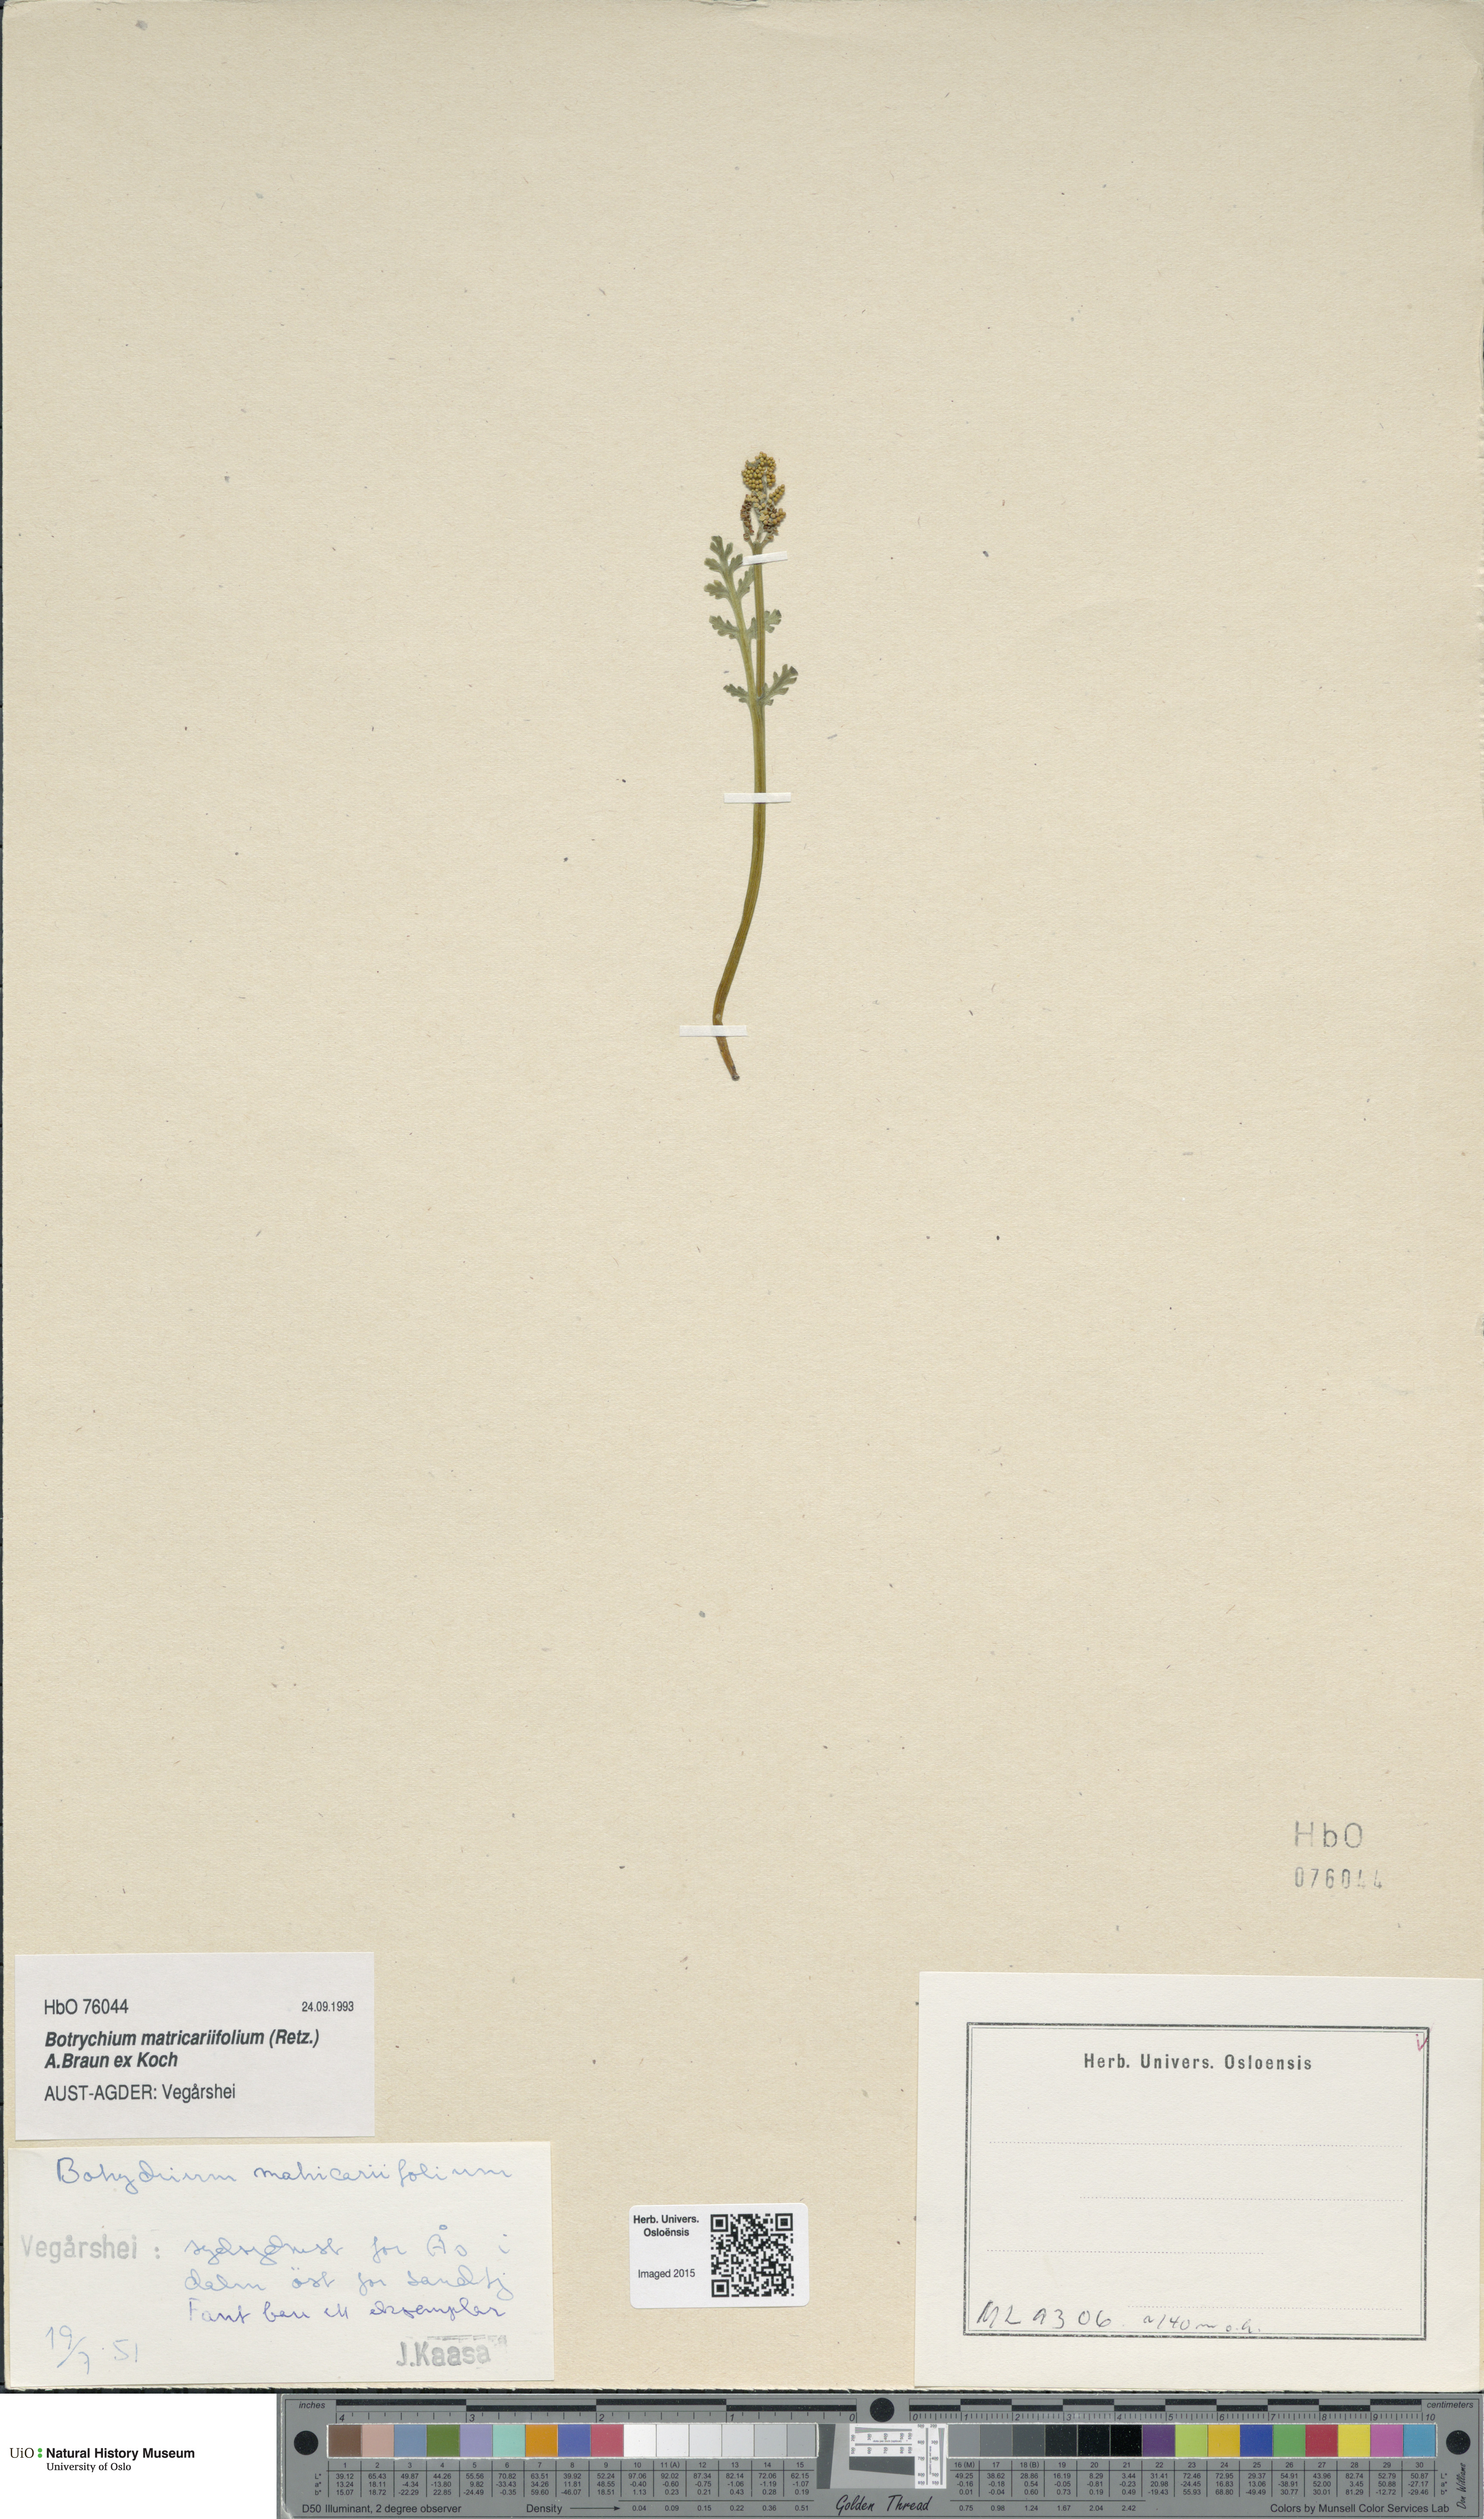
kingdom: Plantae
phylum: Tracheophyta
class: Polypodiopsida
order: Ophioglossales
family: Ophioglossaceae
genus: Botrychium
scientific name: Botrychium matricariifolium
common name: Branched moonwort
